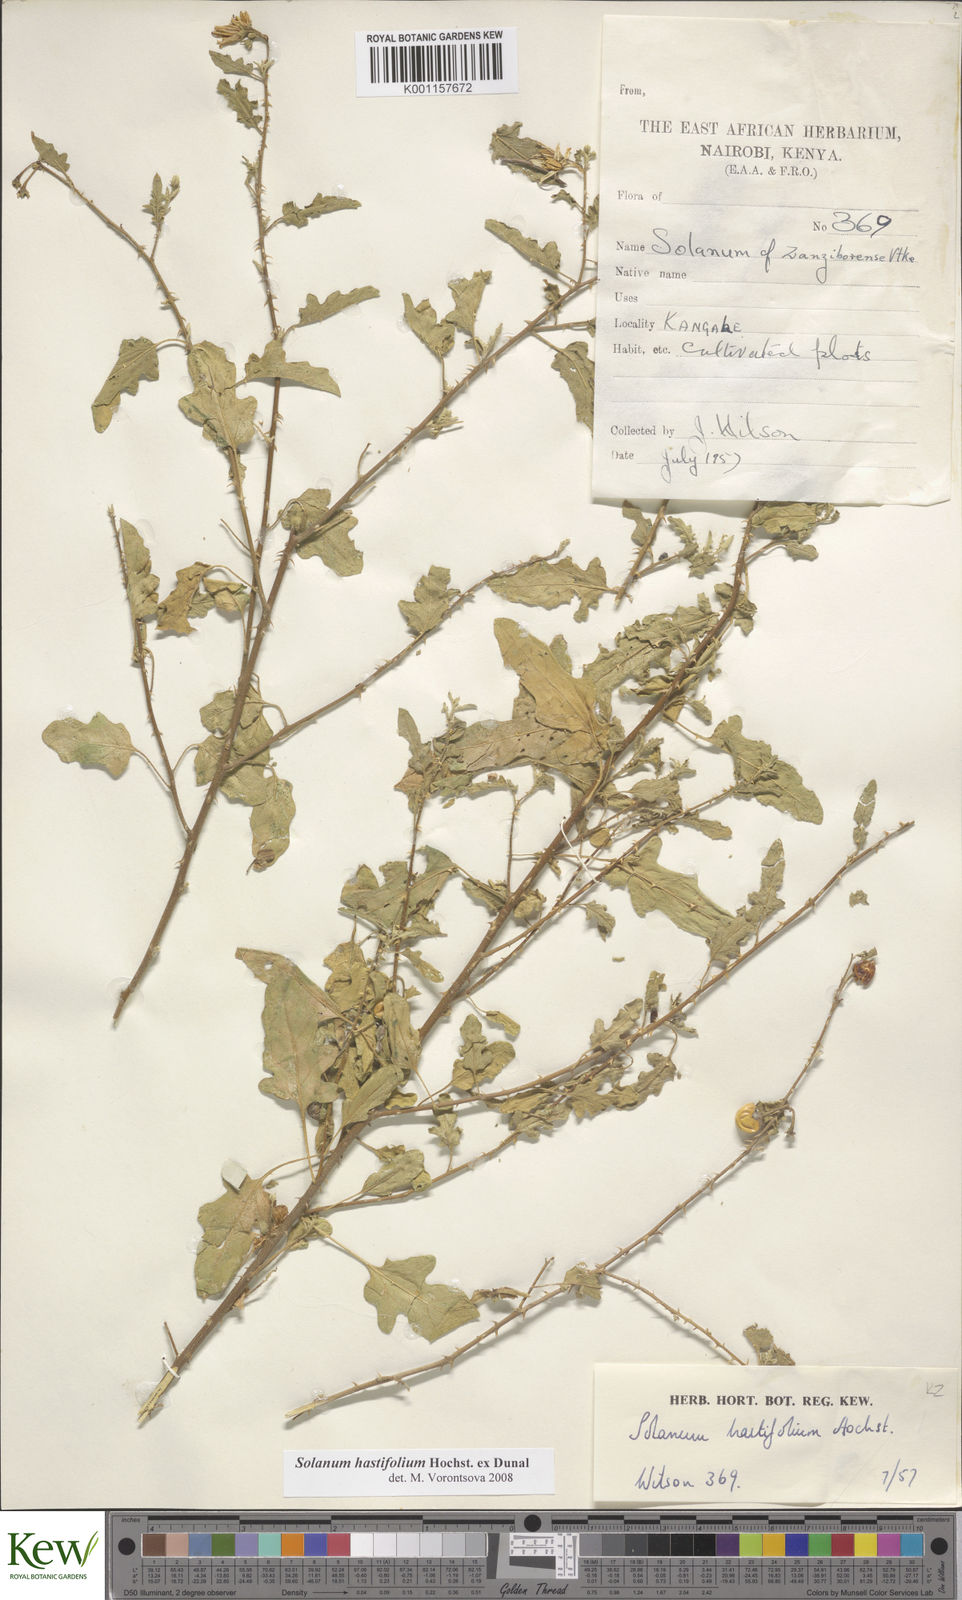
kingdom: Plantae
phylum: Tracheophyta
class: Magnoliopsida
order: Solanales
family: Solanaceae
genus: Solanum
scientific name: Solanum hastifolium
